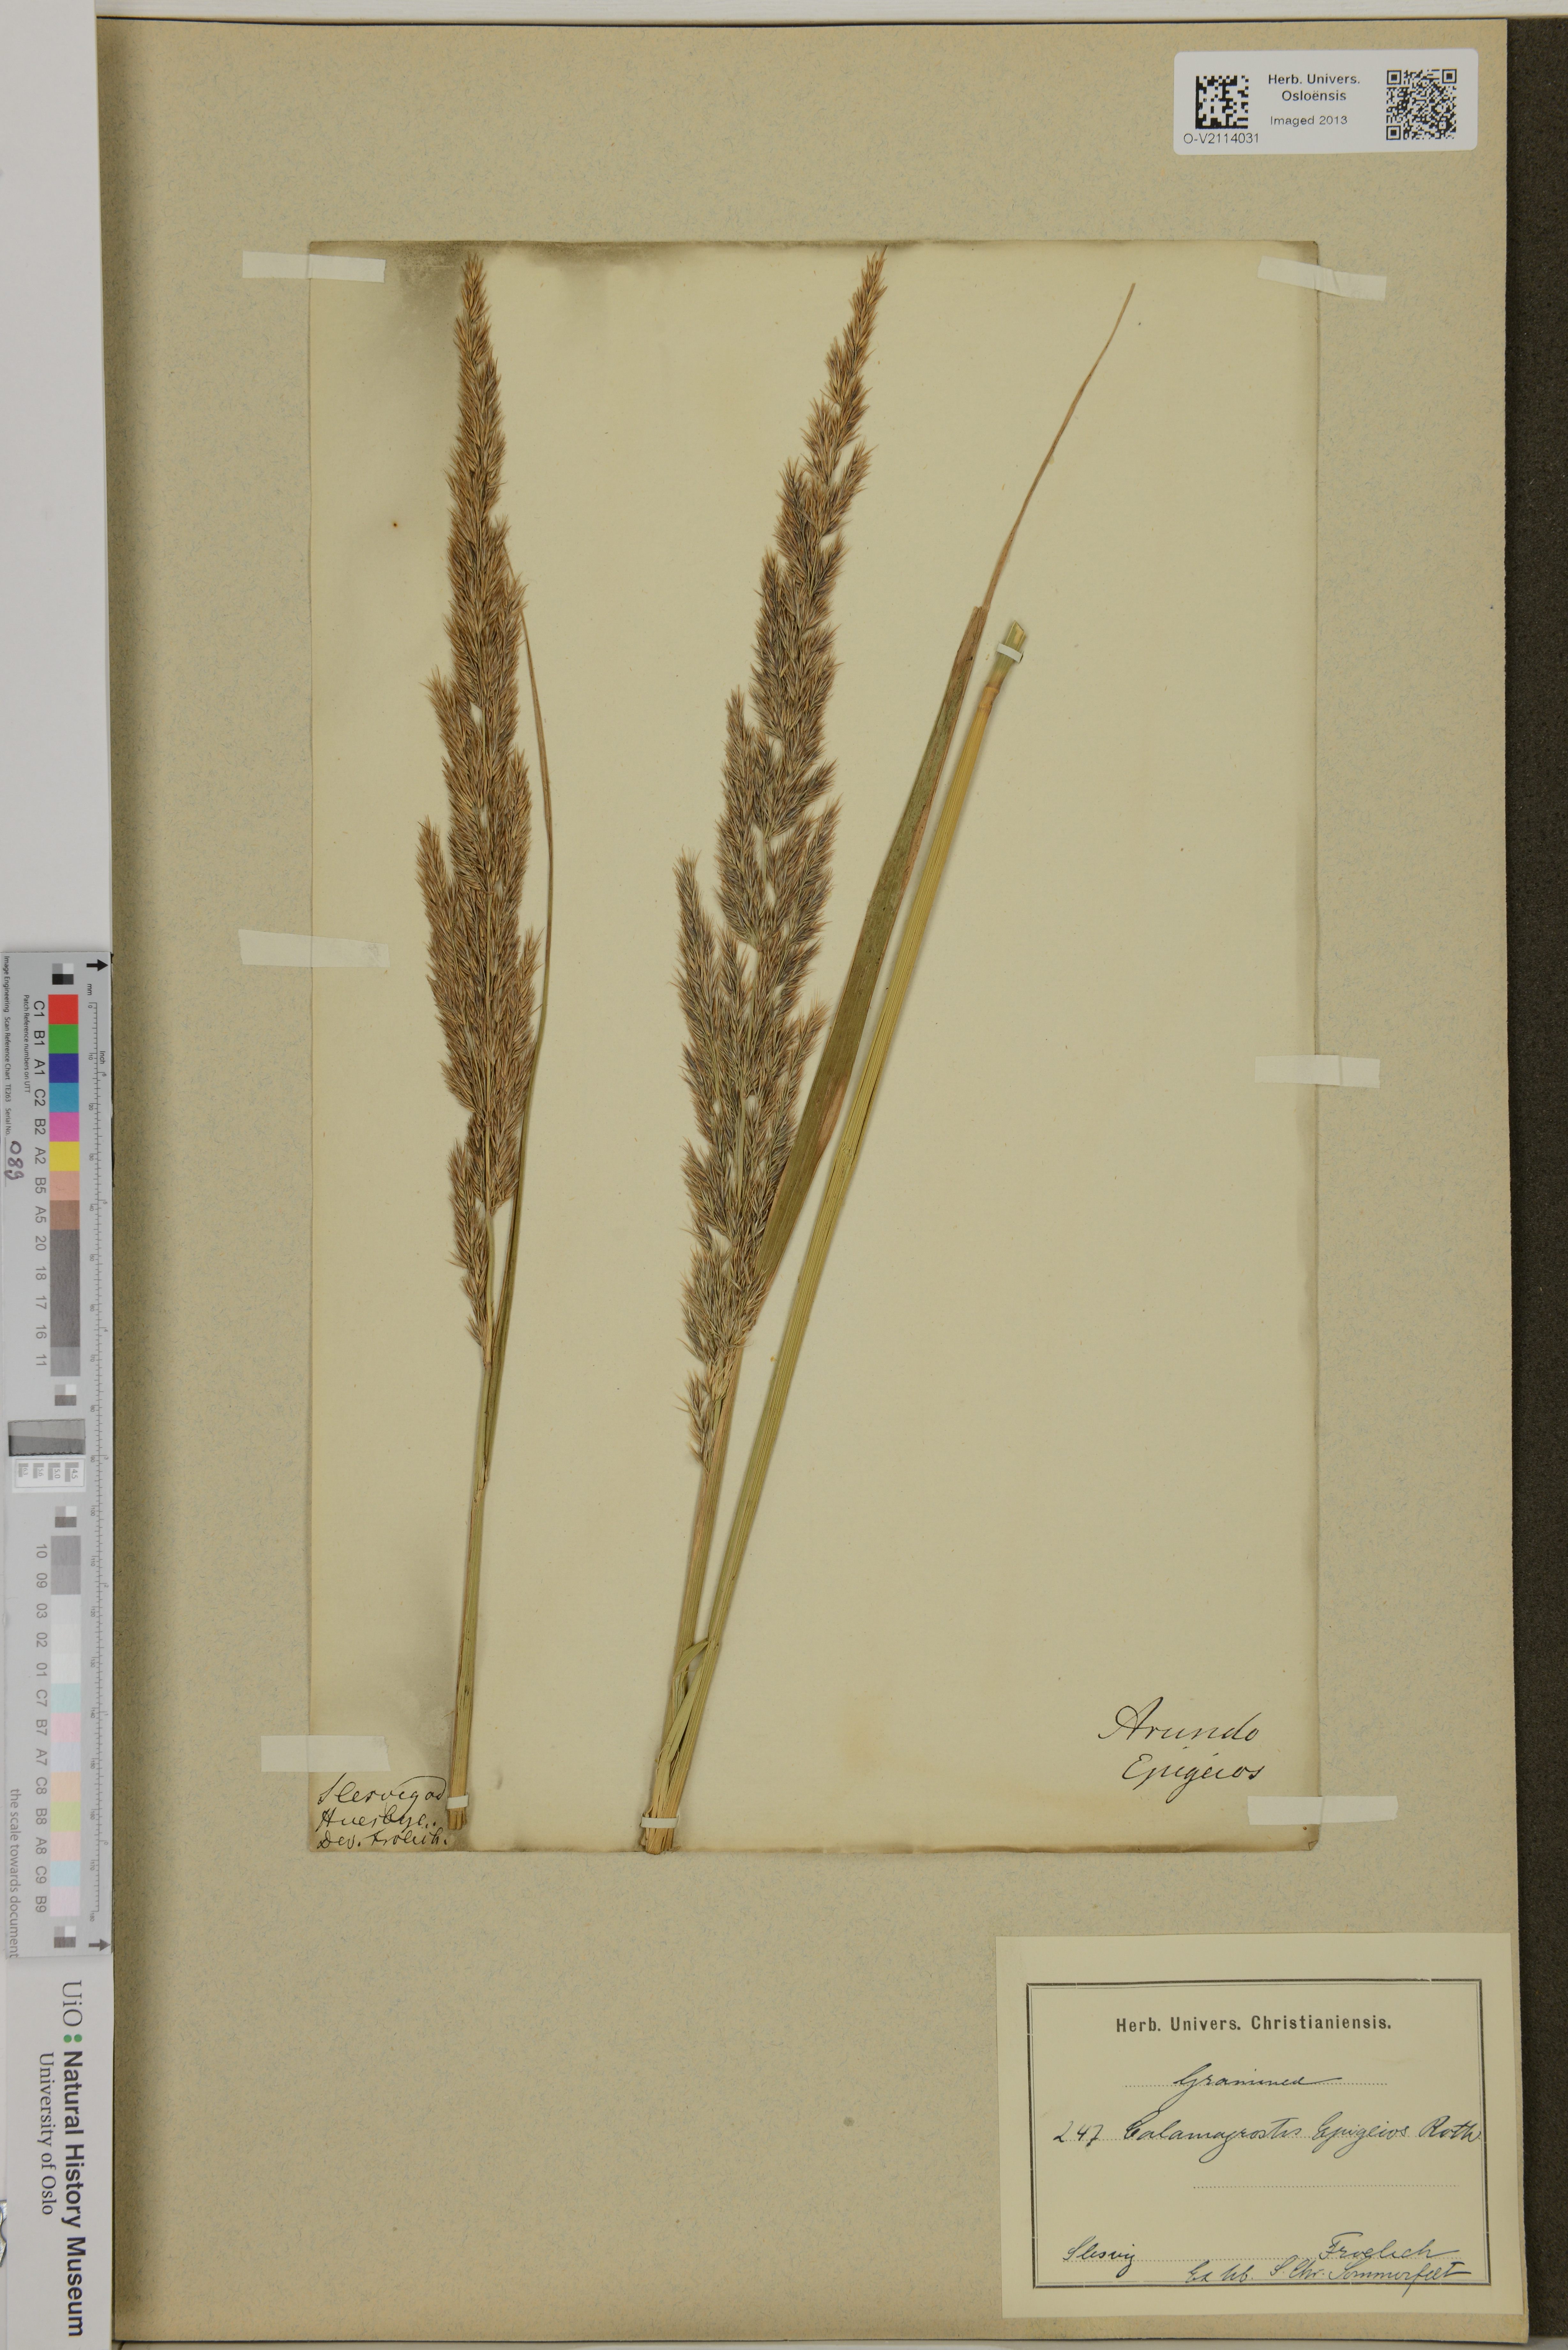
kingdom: Plantae
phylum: Tracheophyta
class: Liliopsida
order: Poales
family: Poaceae
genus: Calamagrostis
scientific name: Calamagrostis epigeios
